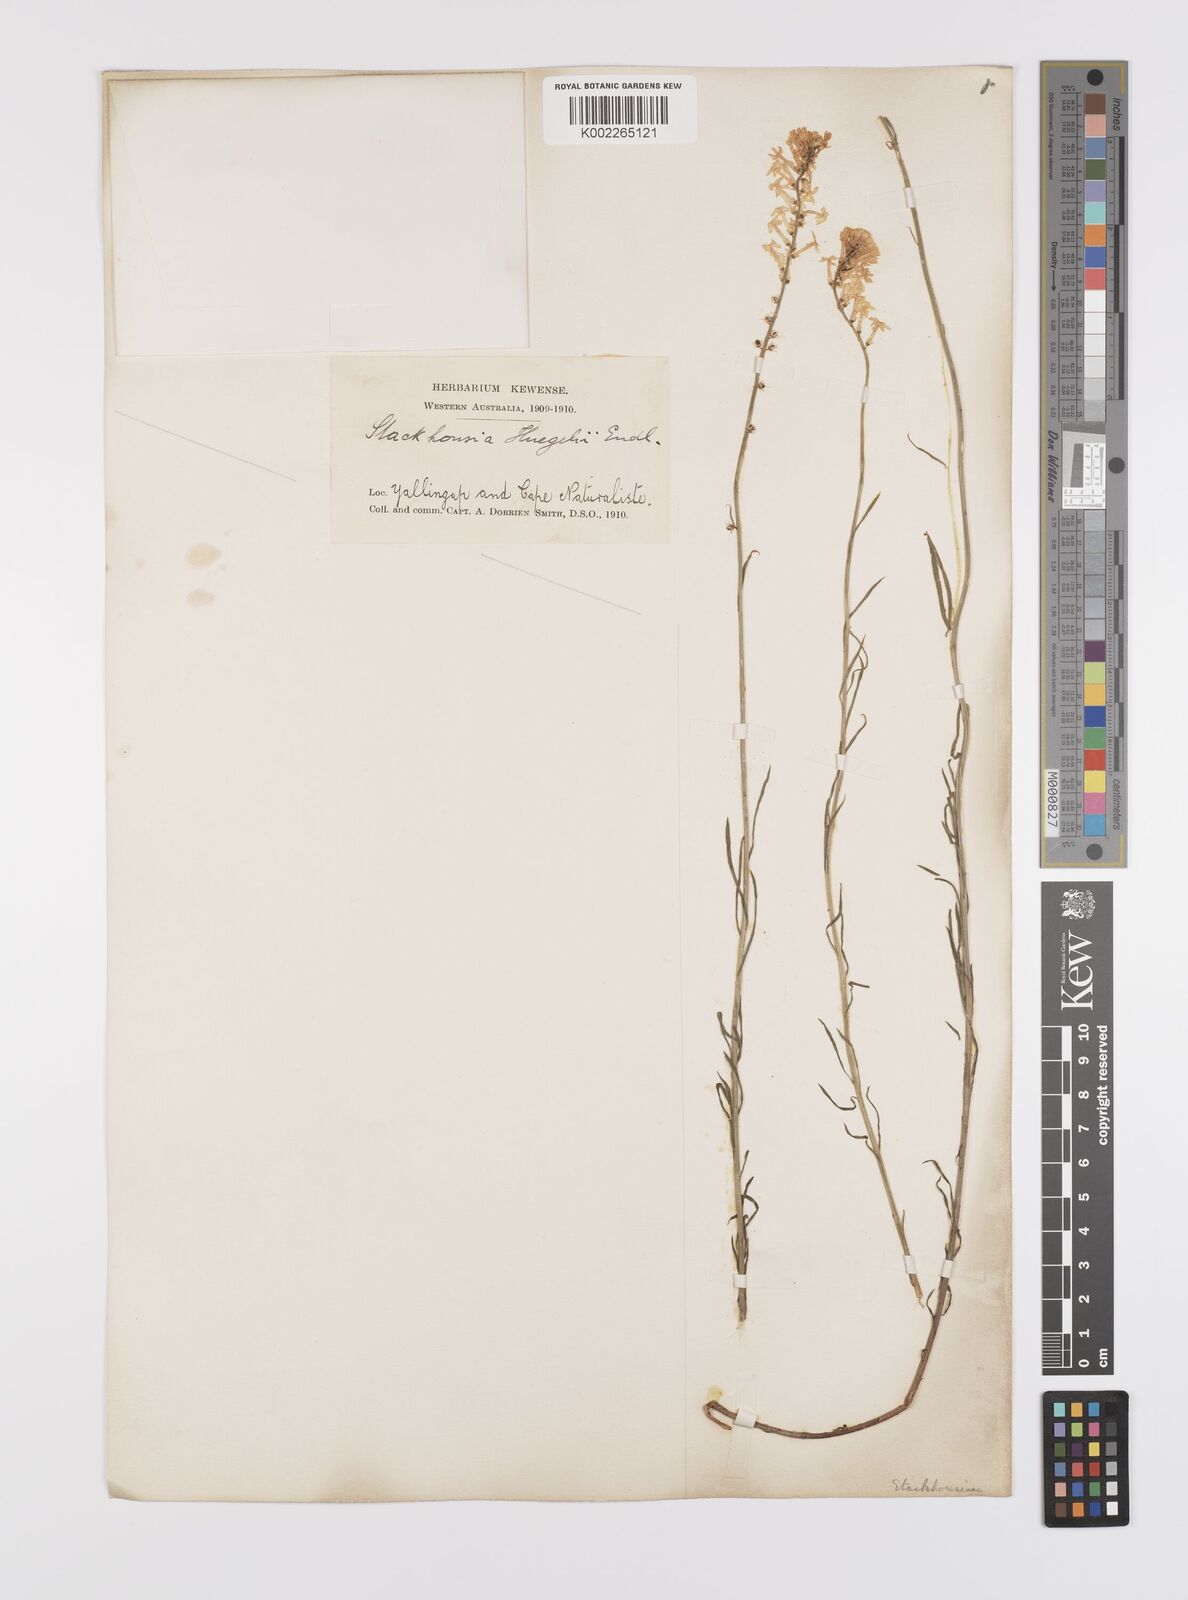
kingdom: Plantae
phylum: Tracheophyta
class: Magnoliopsida
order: Celastrales
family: Celastraceae
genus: Stackhousia
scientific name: Stackhousia monogyna
